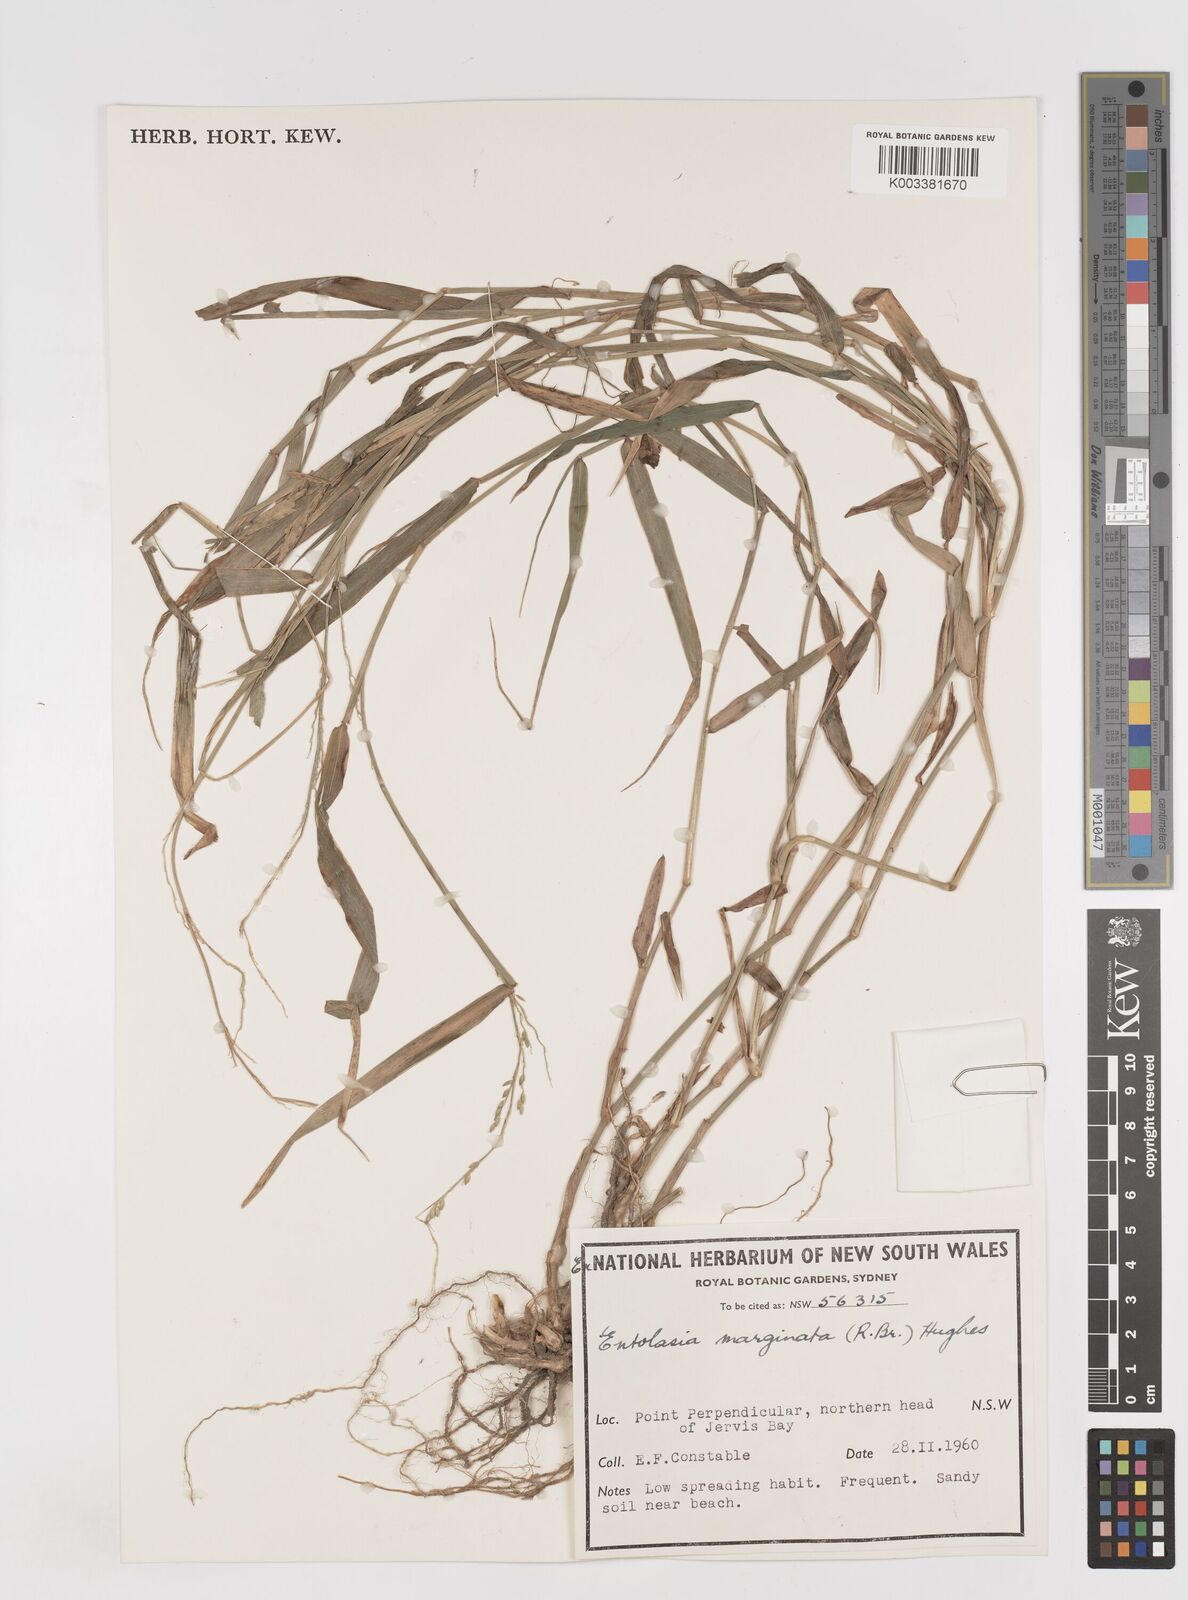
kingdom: Plantae
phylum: Tracheophyta
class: Liliopsida
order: Poales
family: Poaceae
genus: Entolasia
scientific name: Entolasia marginata
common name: Australian panicgrass
